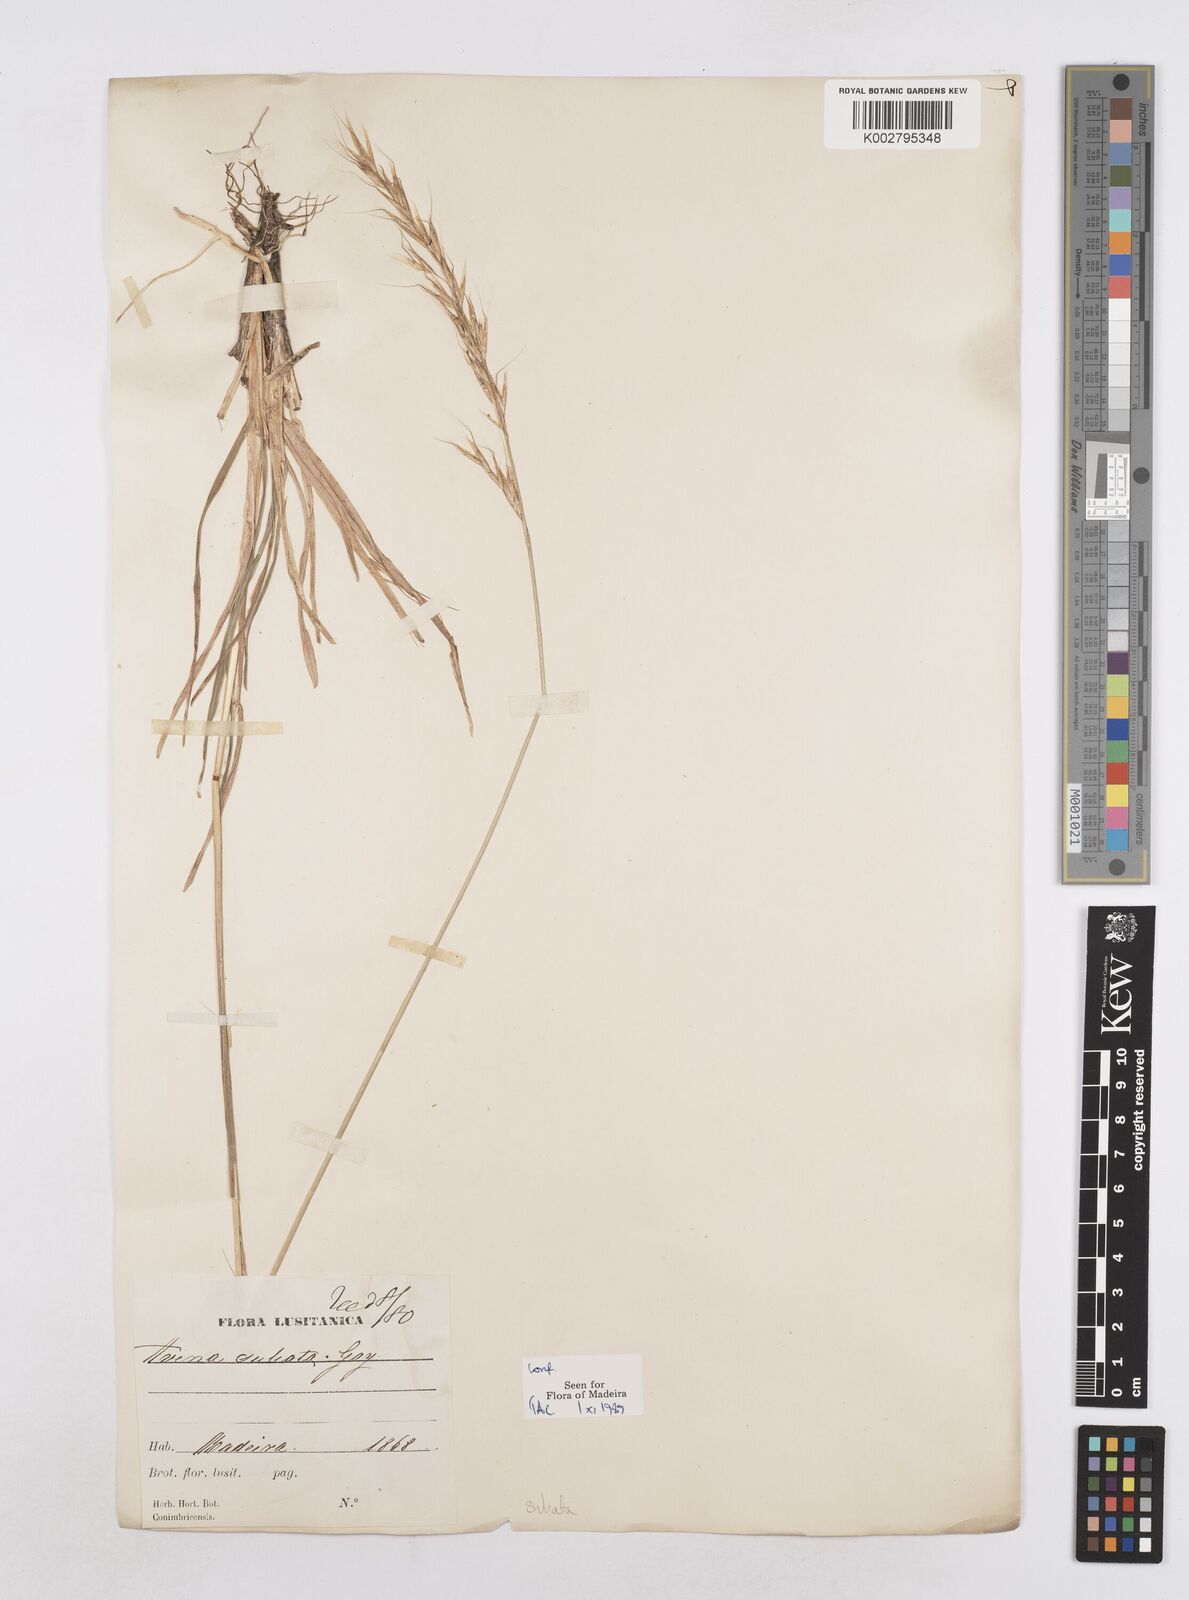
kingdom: Plantae
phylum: Tracheophyta
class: Liliopsida
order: Poales
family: Poaceae
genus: Helictotrichon
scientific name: Helictotrichon
